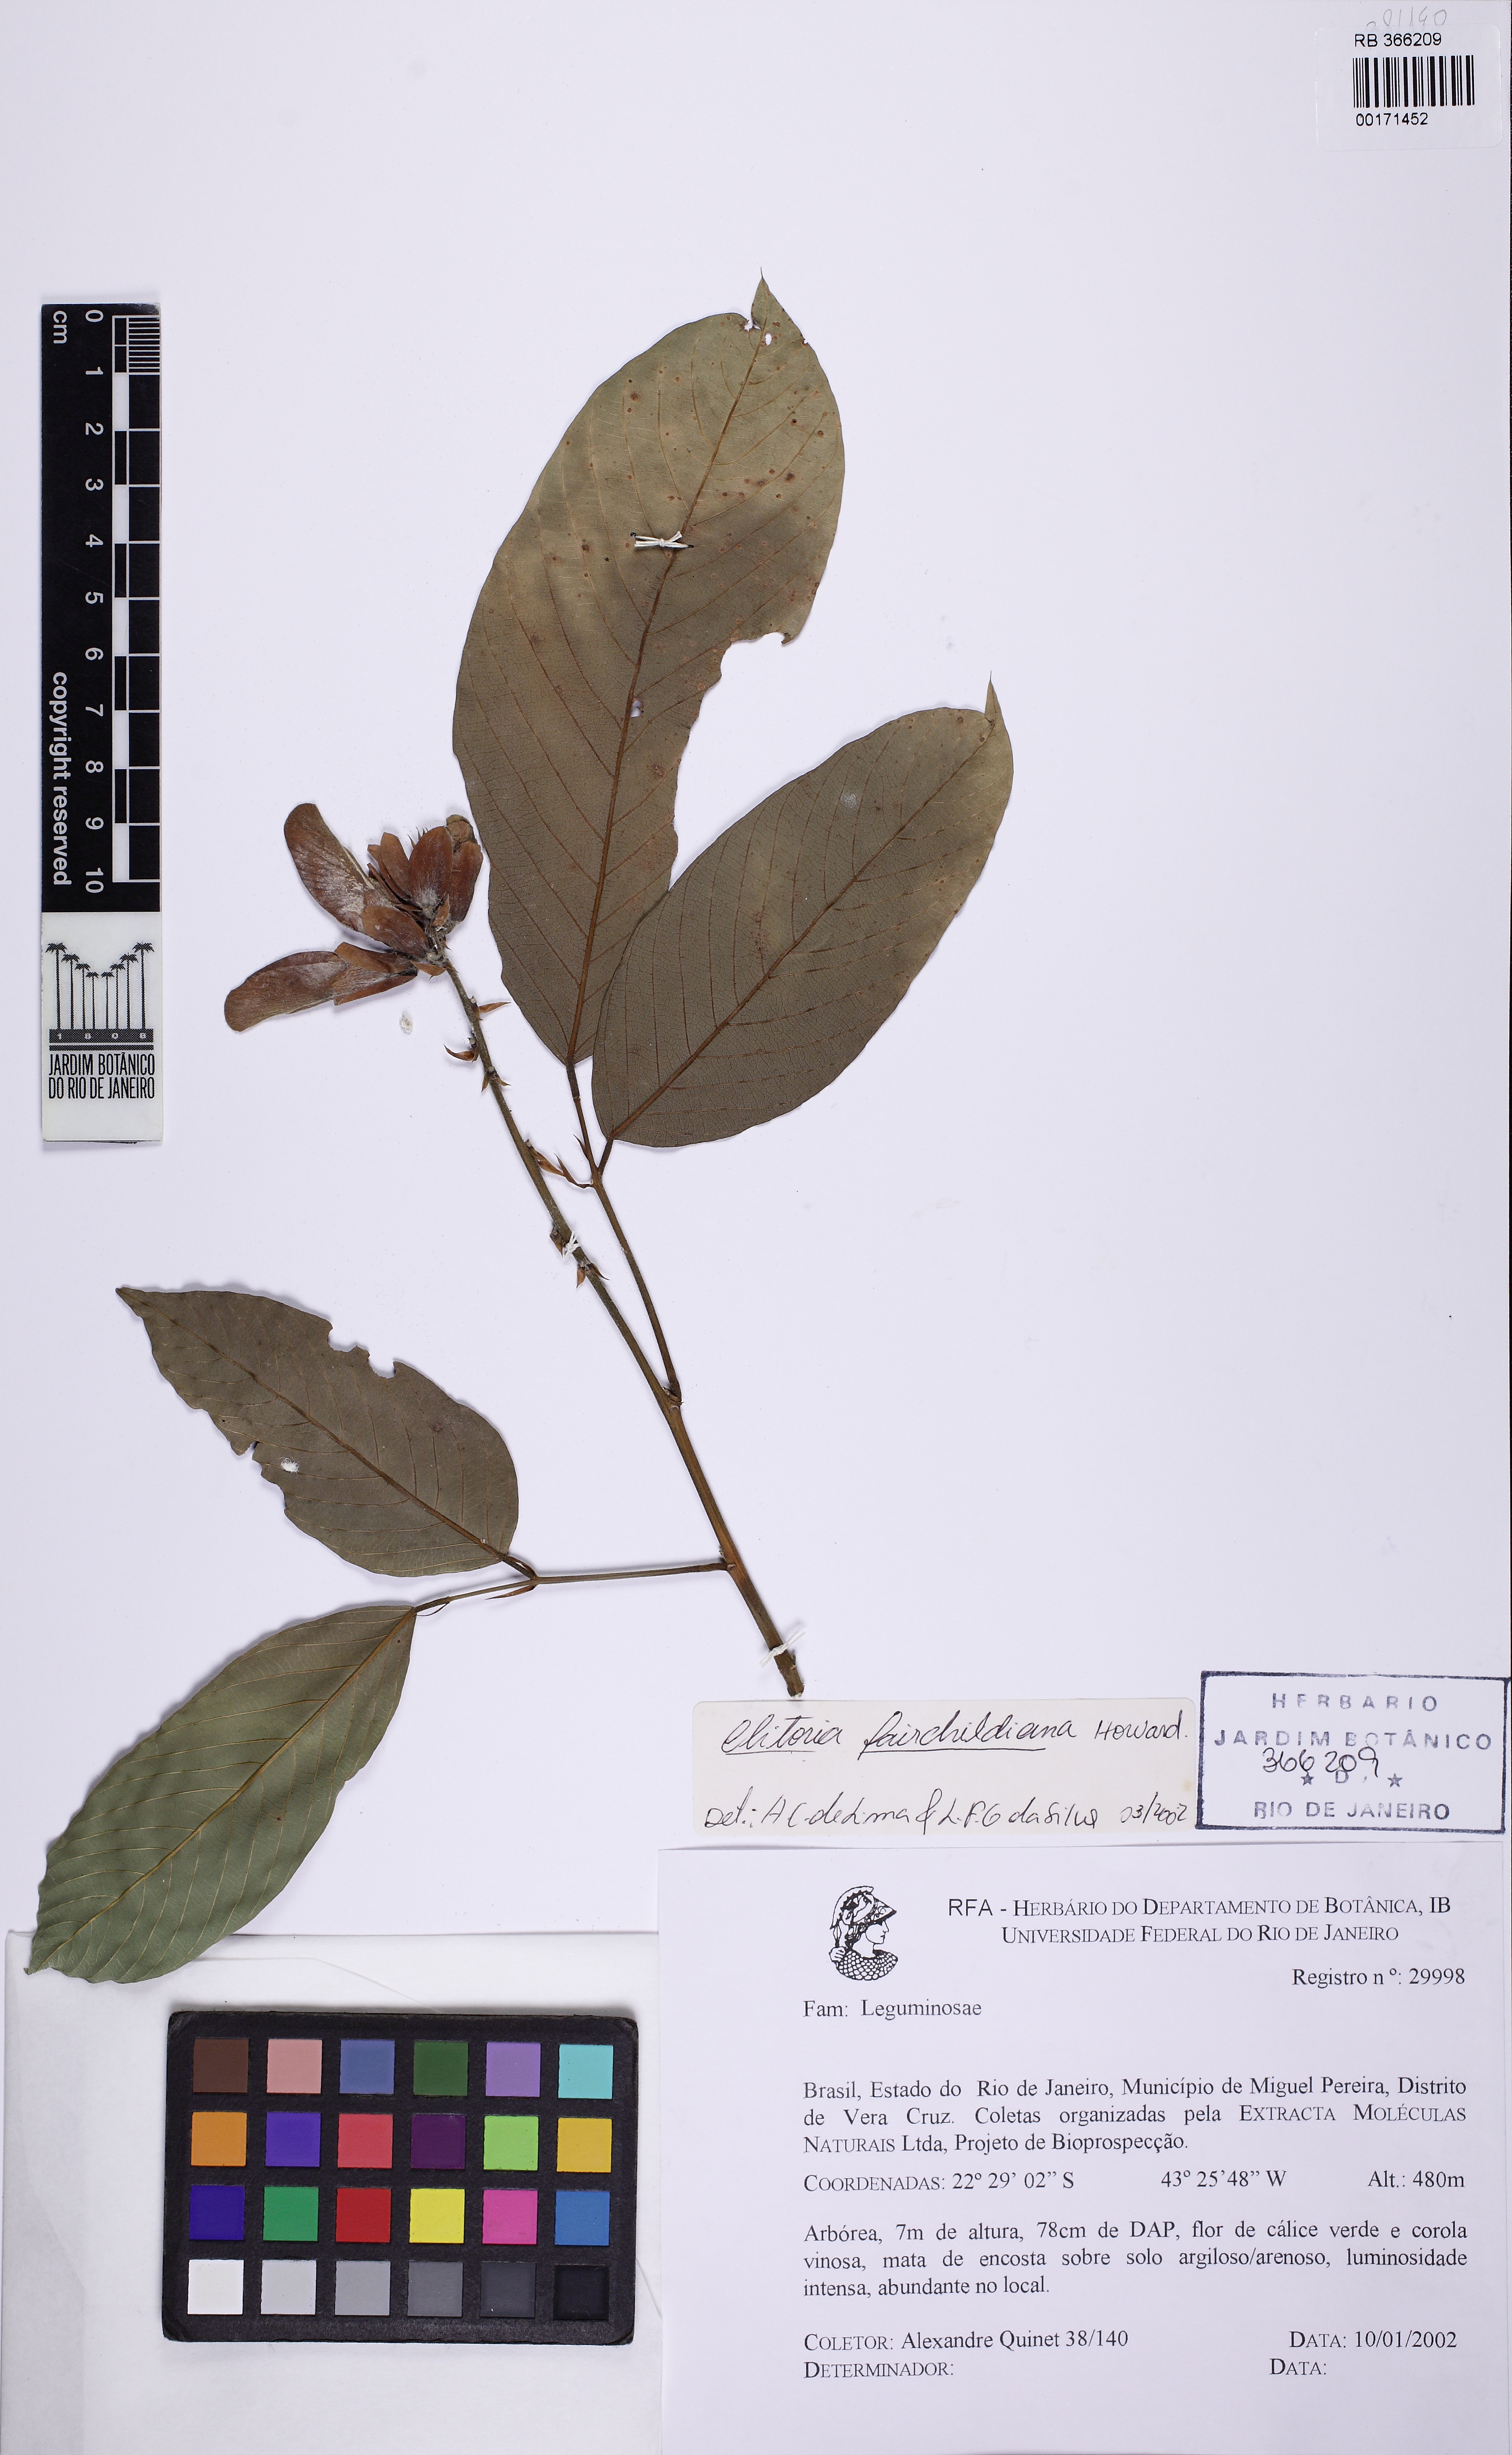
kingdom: Plantae
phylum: Tracheophyta
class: Magnoliopsida
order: Fabales
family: Fabaceae
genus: Clitoria
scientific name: Clitoria fairchildiana
